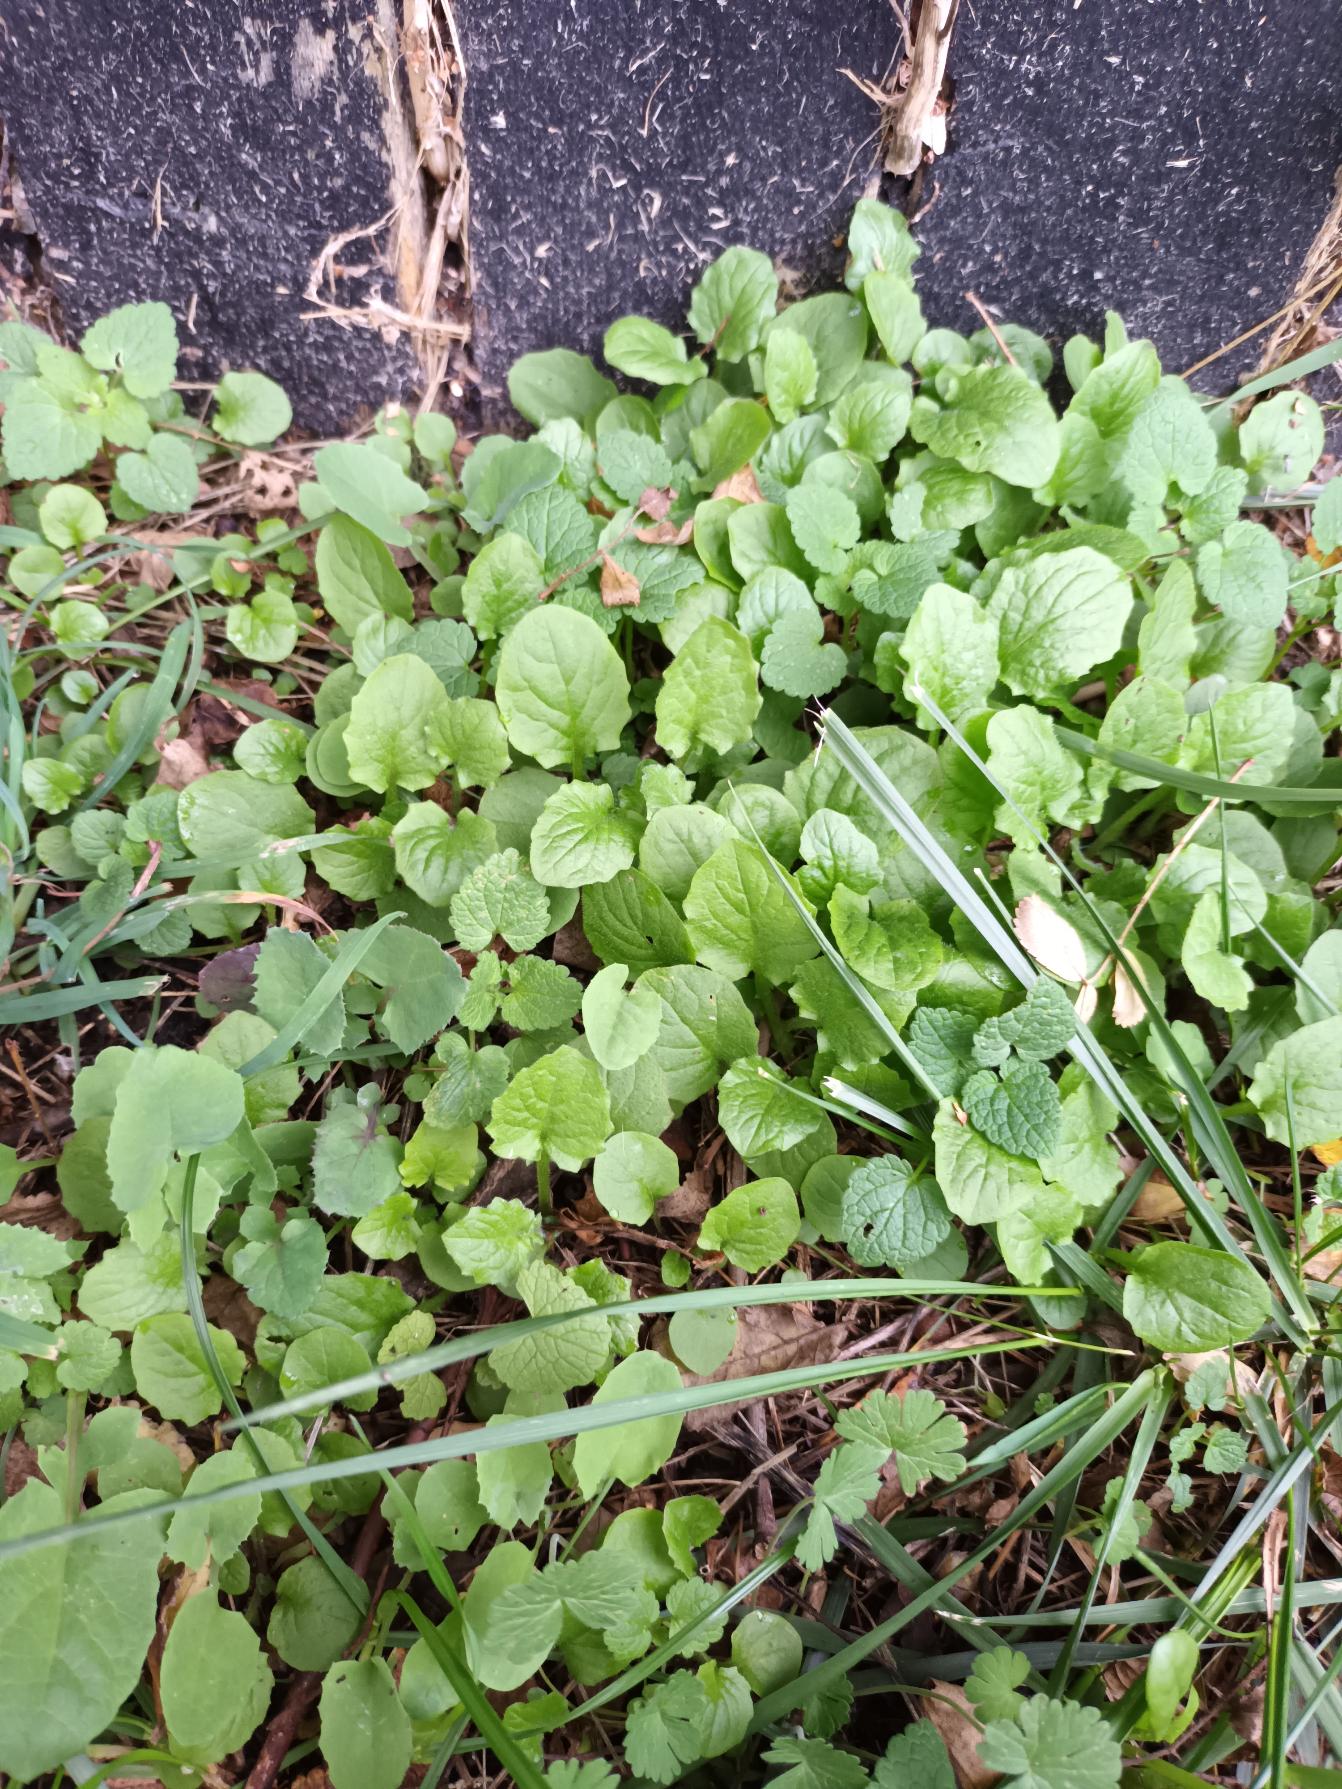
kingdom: Plantae
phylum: Tracheophyta
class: Magnoliopsida
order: Asterales
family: Asteraceae
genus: Lapsana
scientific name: Lapsana communis
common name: Haremad
